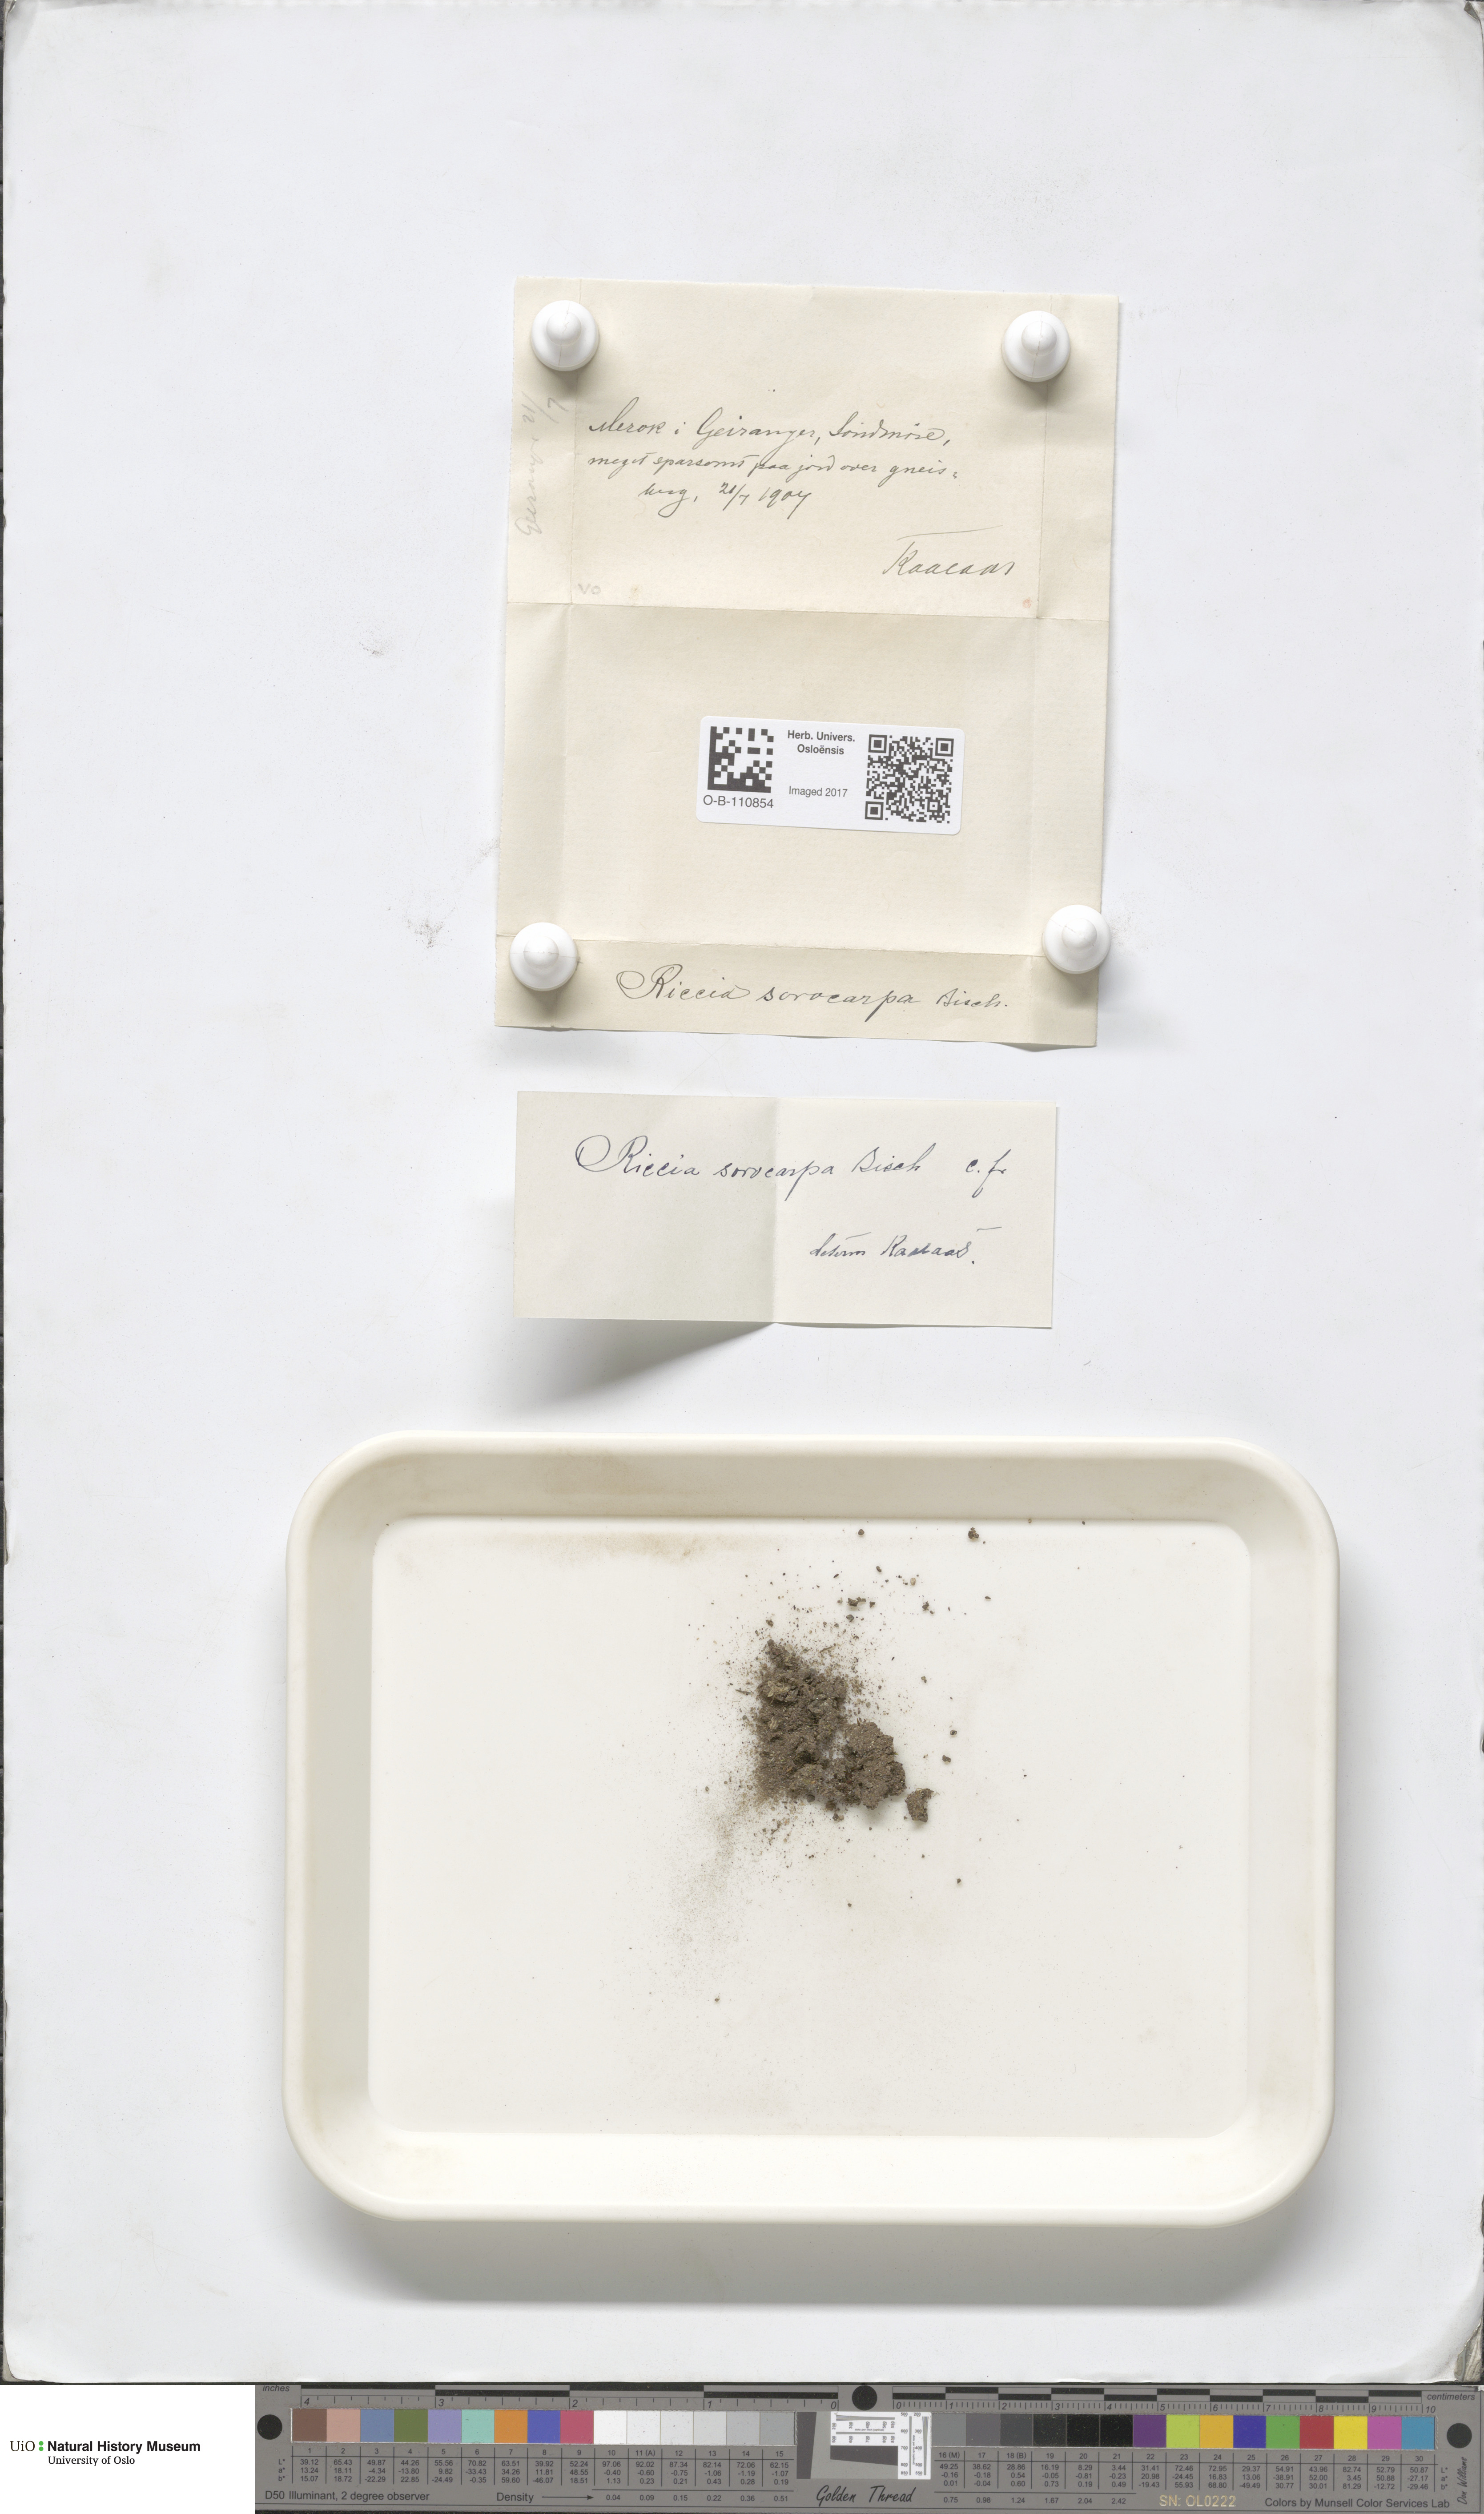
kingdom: Plantae
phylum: Marchantiophyta
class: Marchantiopsida
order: Marchantiales
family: Ricciaceae
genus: Riccia
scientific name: Riccia sorocarpa
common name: Common crystalwort
